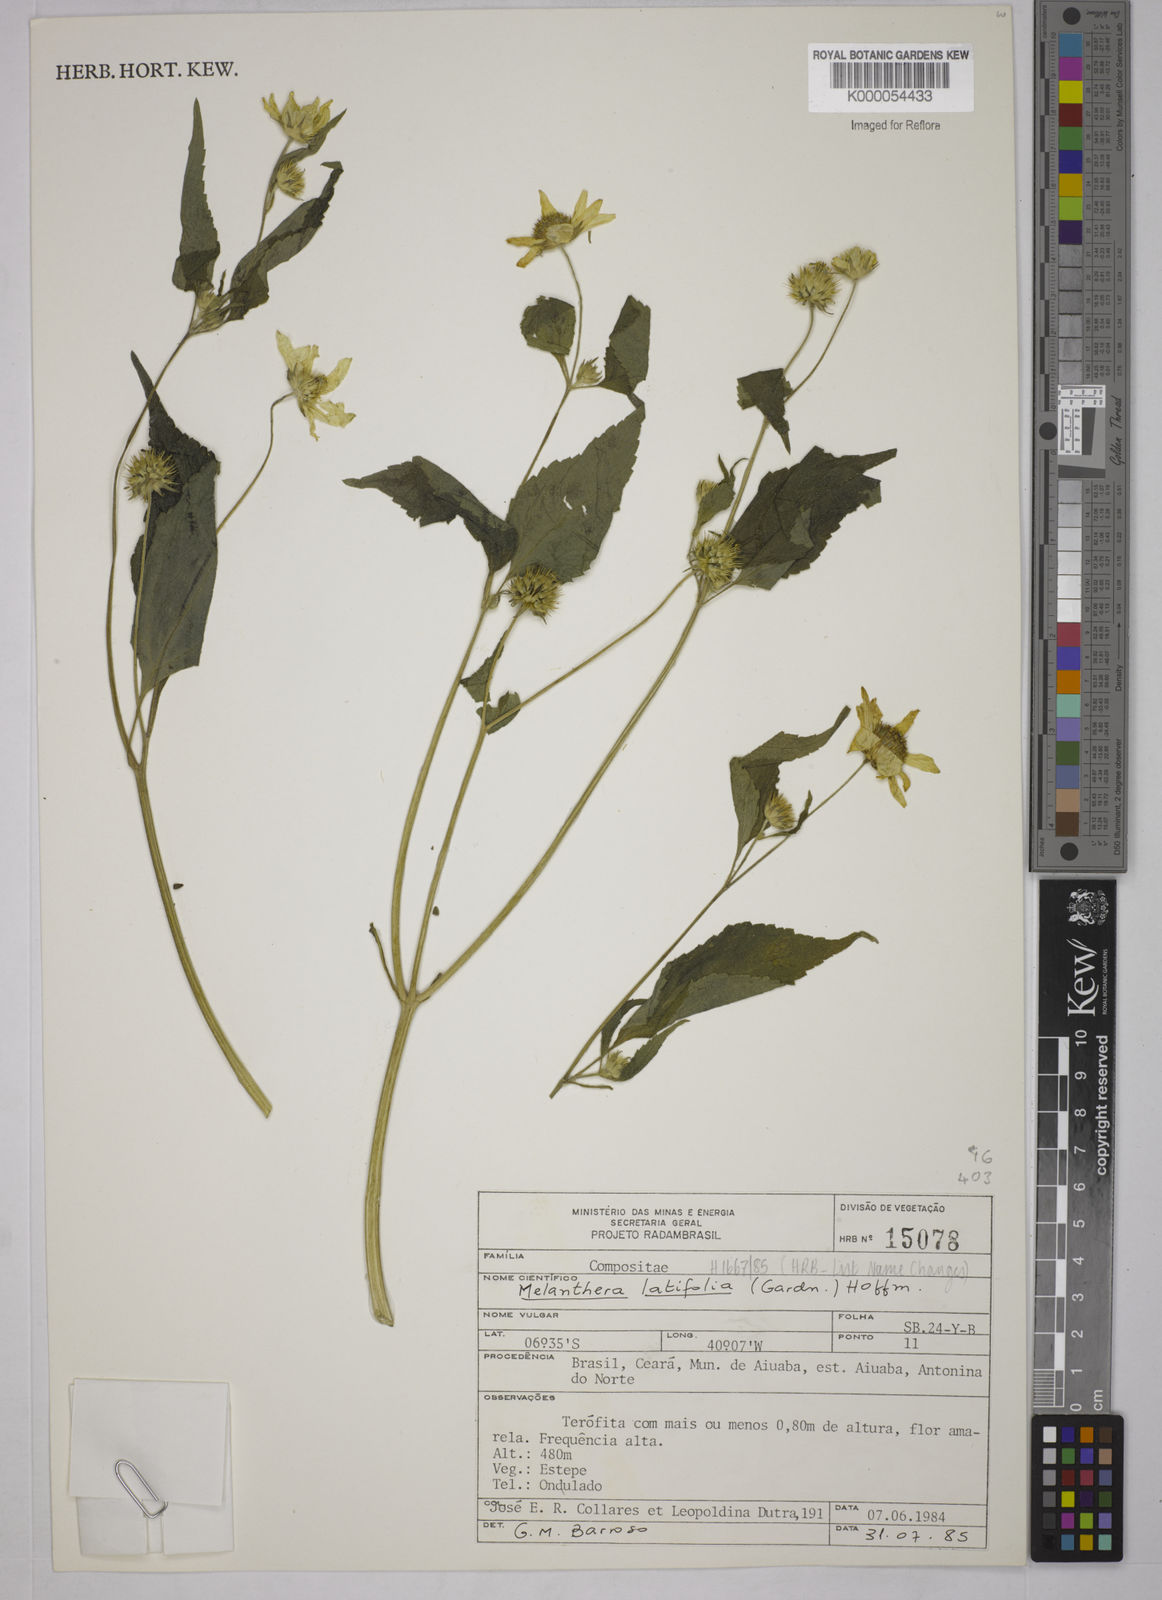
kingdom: Plantae
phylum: Tracheophyta
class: Magnoliopsida
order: Asterales
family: Asteraceae
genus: Echinocephalum
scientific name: Echinocephalum latifolium
